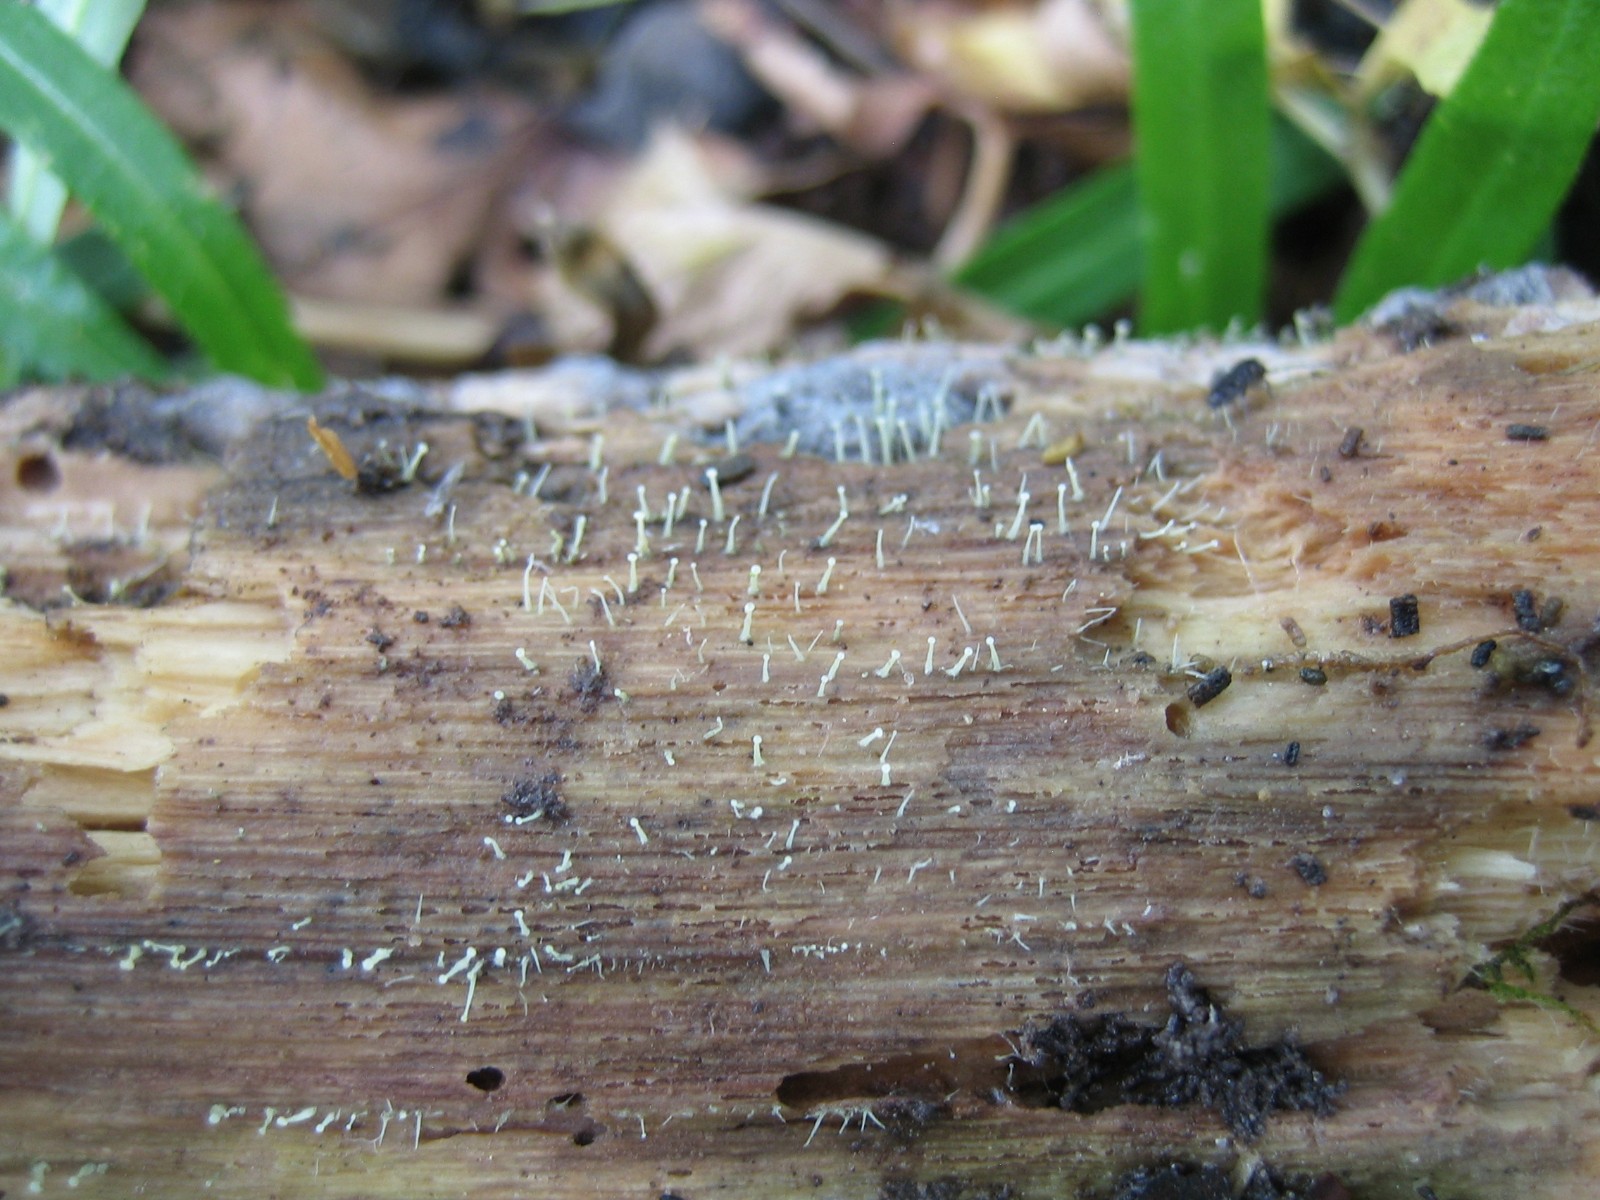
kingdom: Fungi
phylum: Ascomycota
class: Leotiomycetes
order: Leotiales
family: Tympanidaceae
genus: Claussenomyces
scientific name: Claussenomyces prasinulus
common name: bleggrøn linseskive
